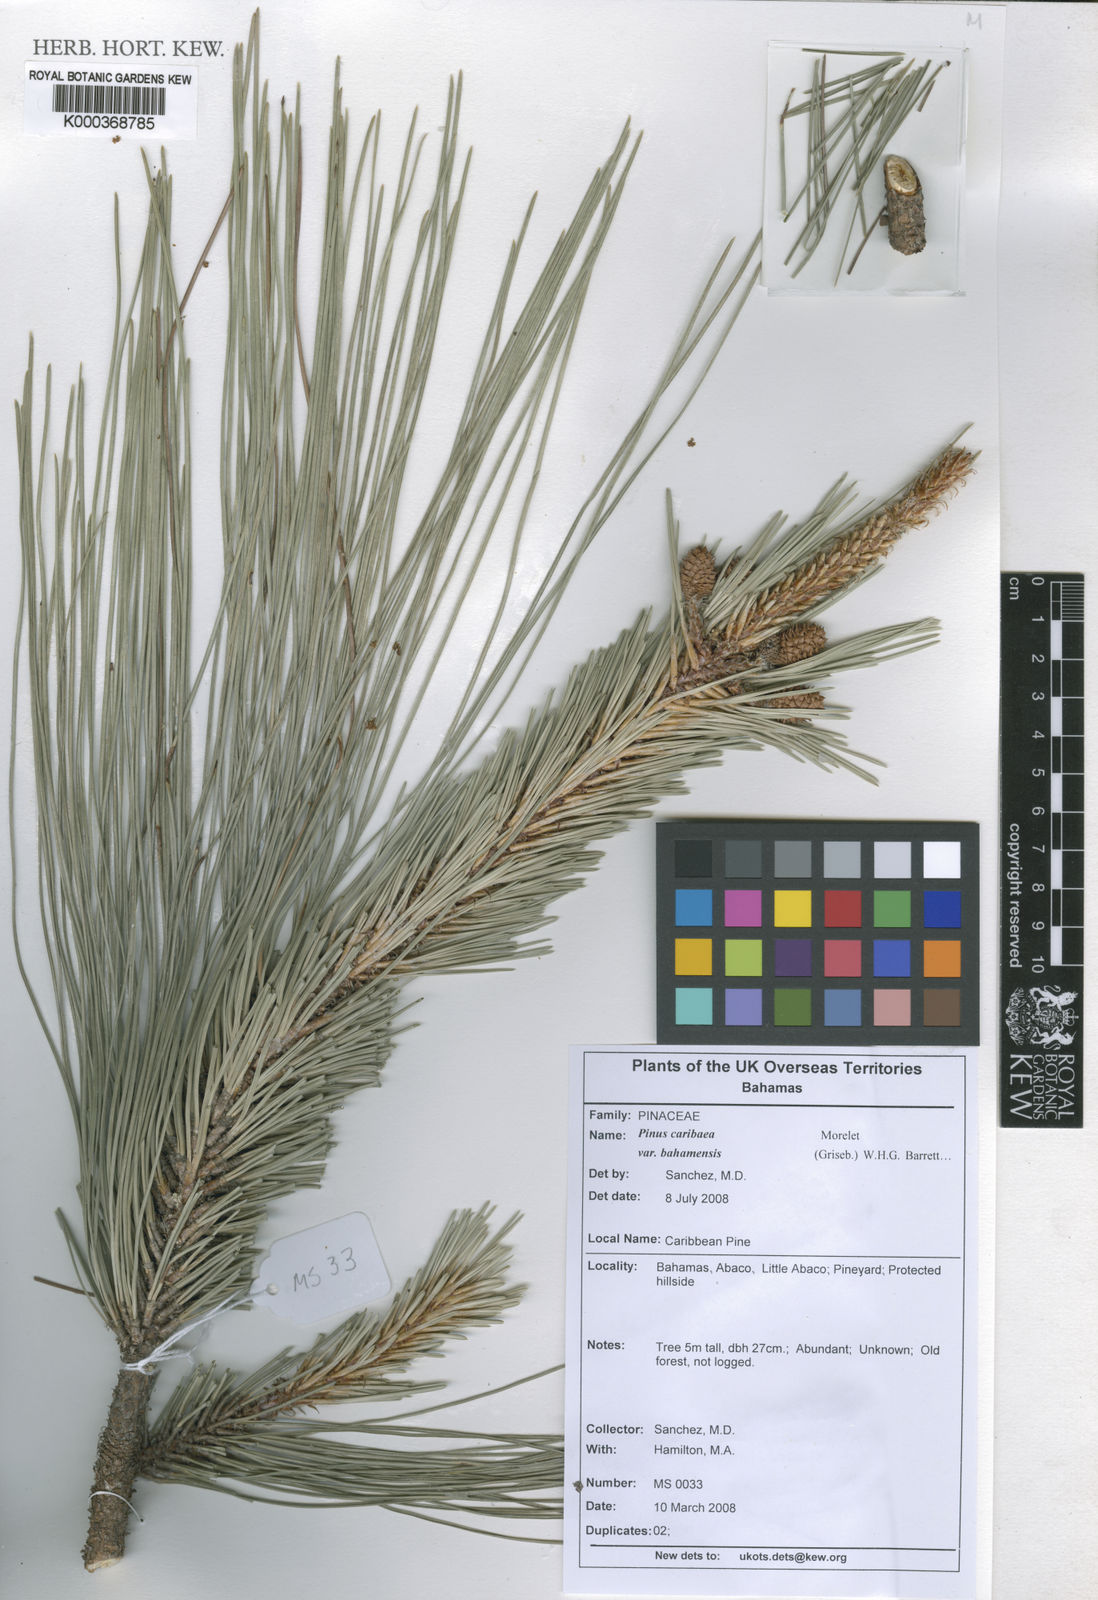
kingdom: Plantae
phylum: Tracheophyta
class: Pinopsida
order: Pinales
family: Pinaceae
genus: Pinus
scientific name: Pinus caribaea
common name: Caribbean pine
